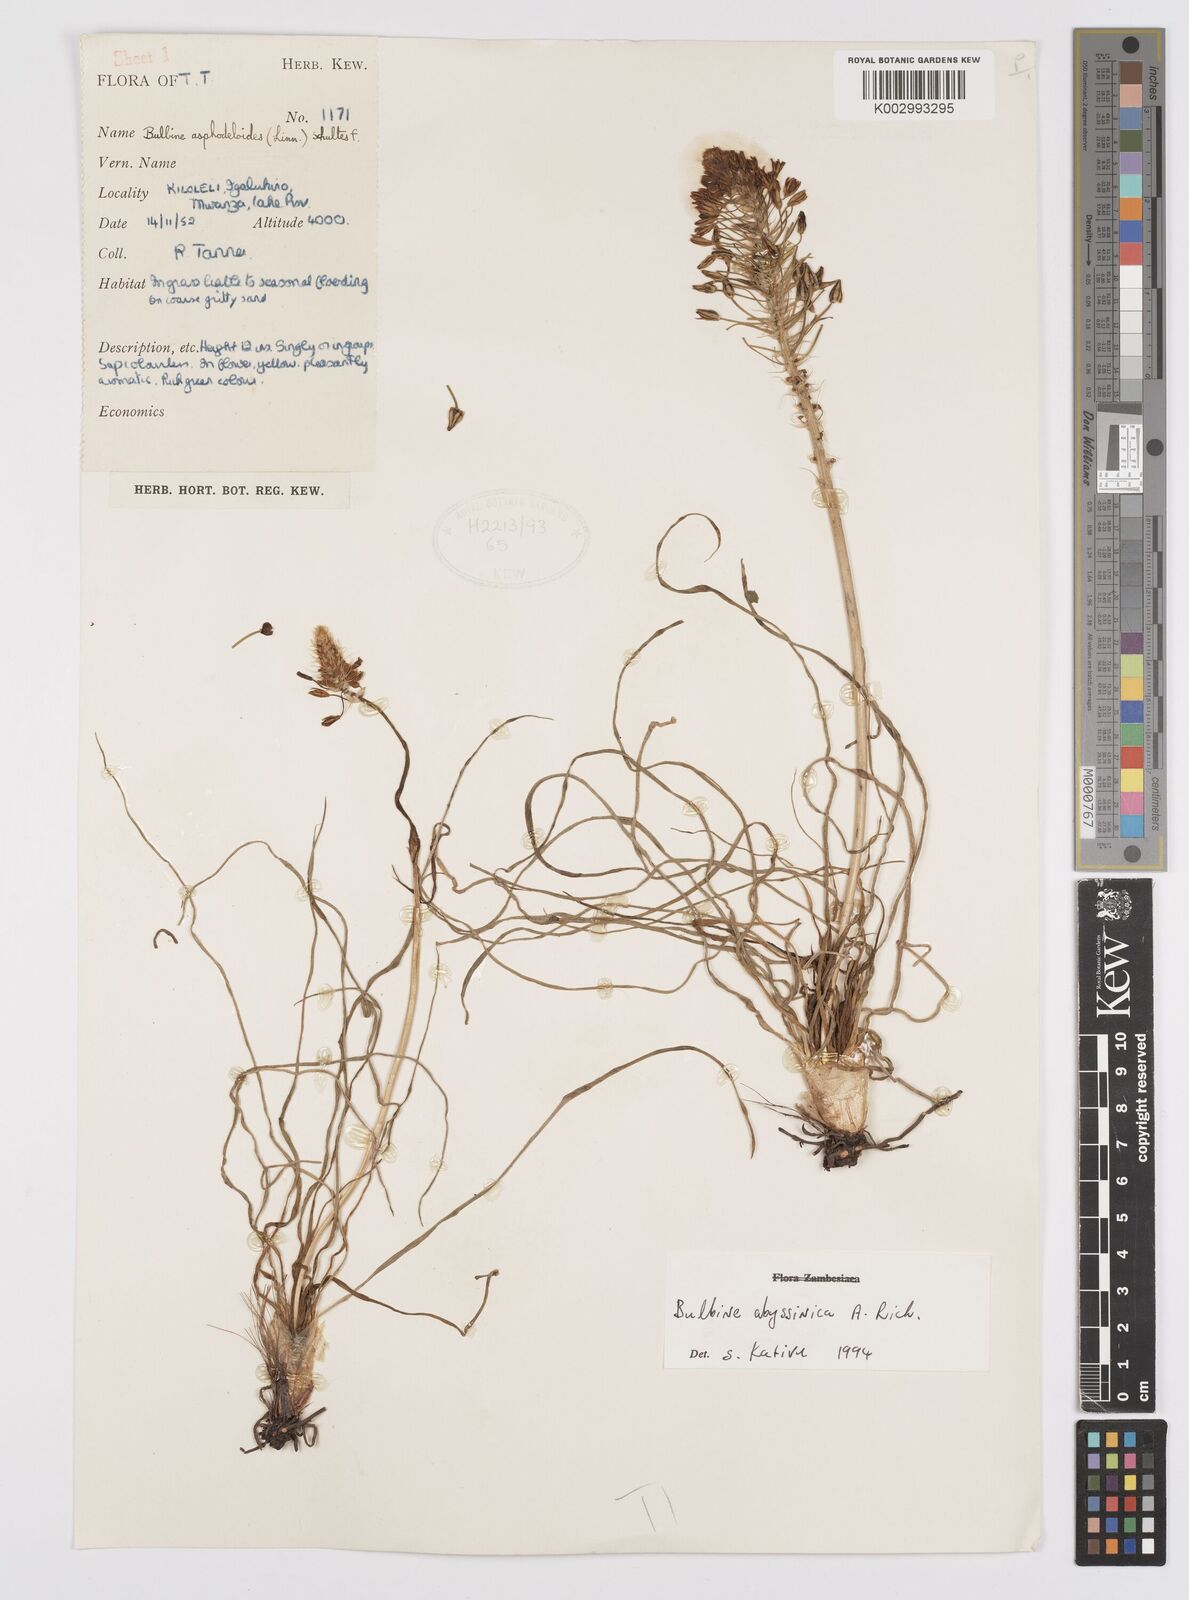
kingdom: Plantae
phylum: Tracheophyta
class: Liliopsida
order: Asparagales
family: Asphodelaceae
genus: Bulbine
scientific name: Bulbine abyssinica
